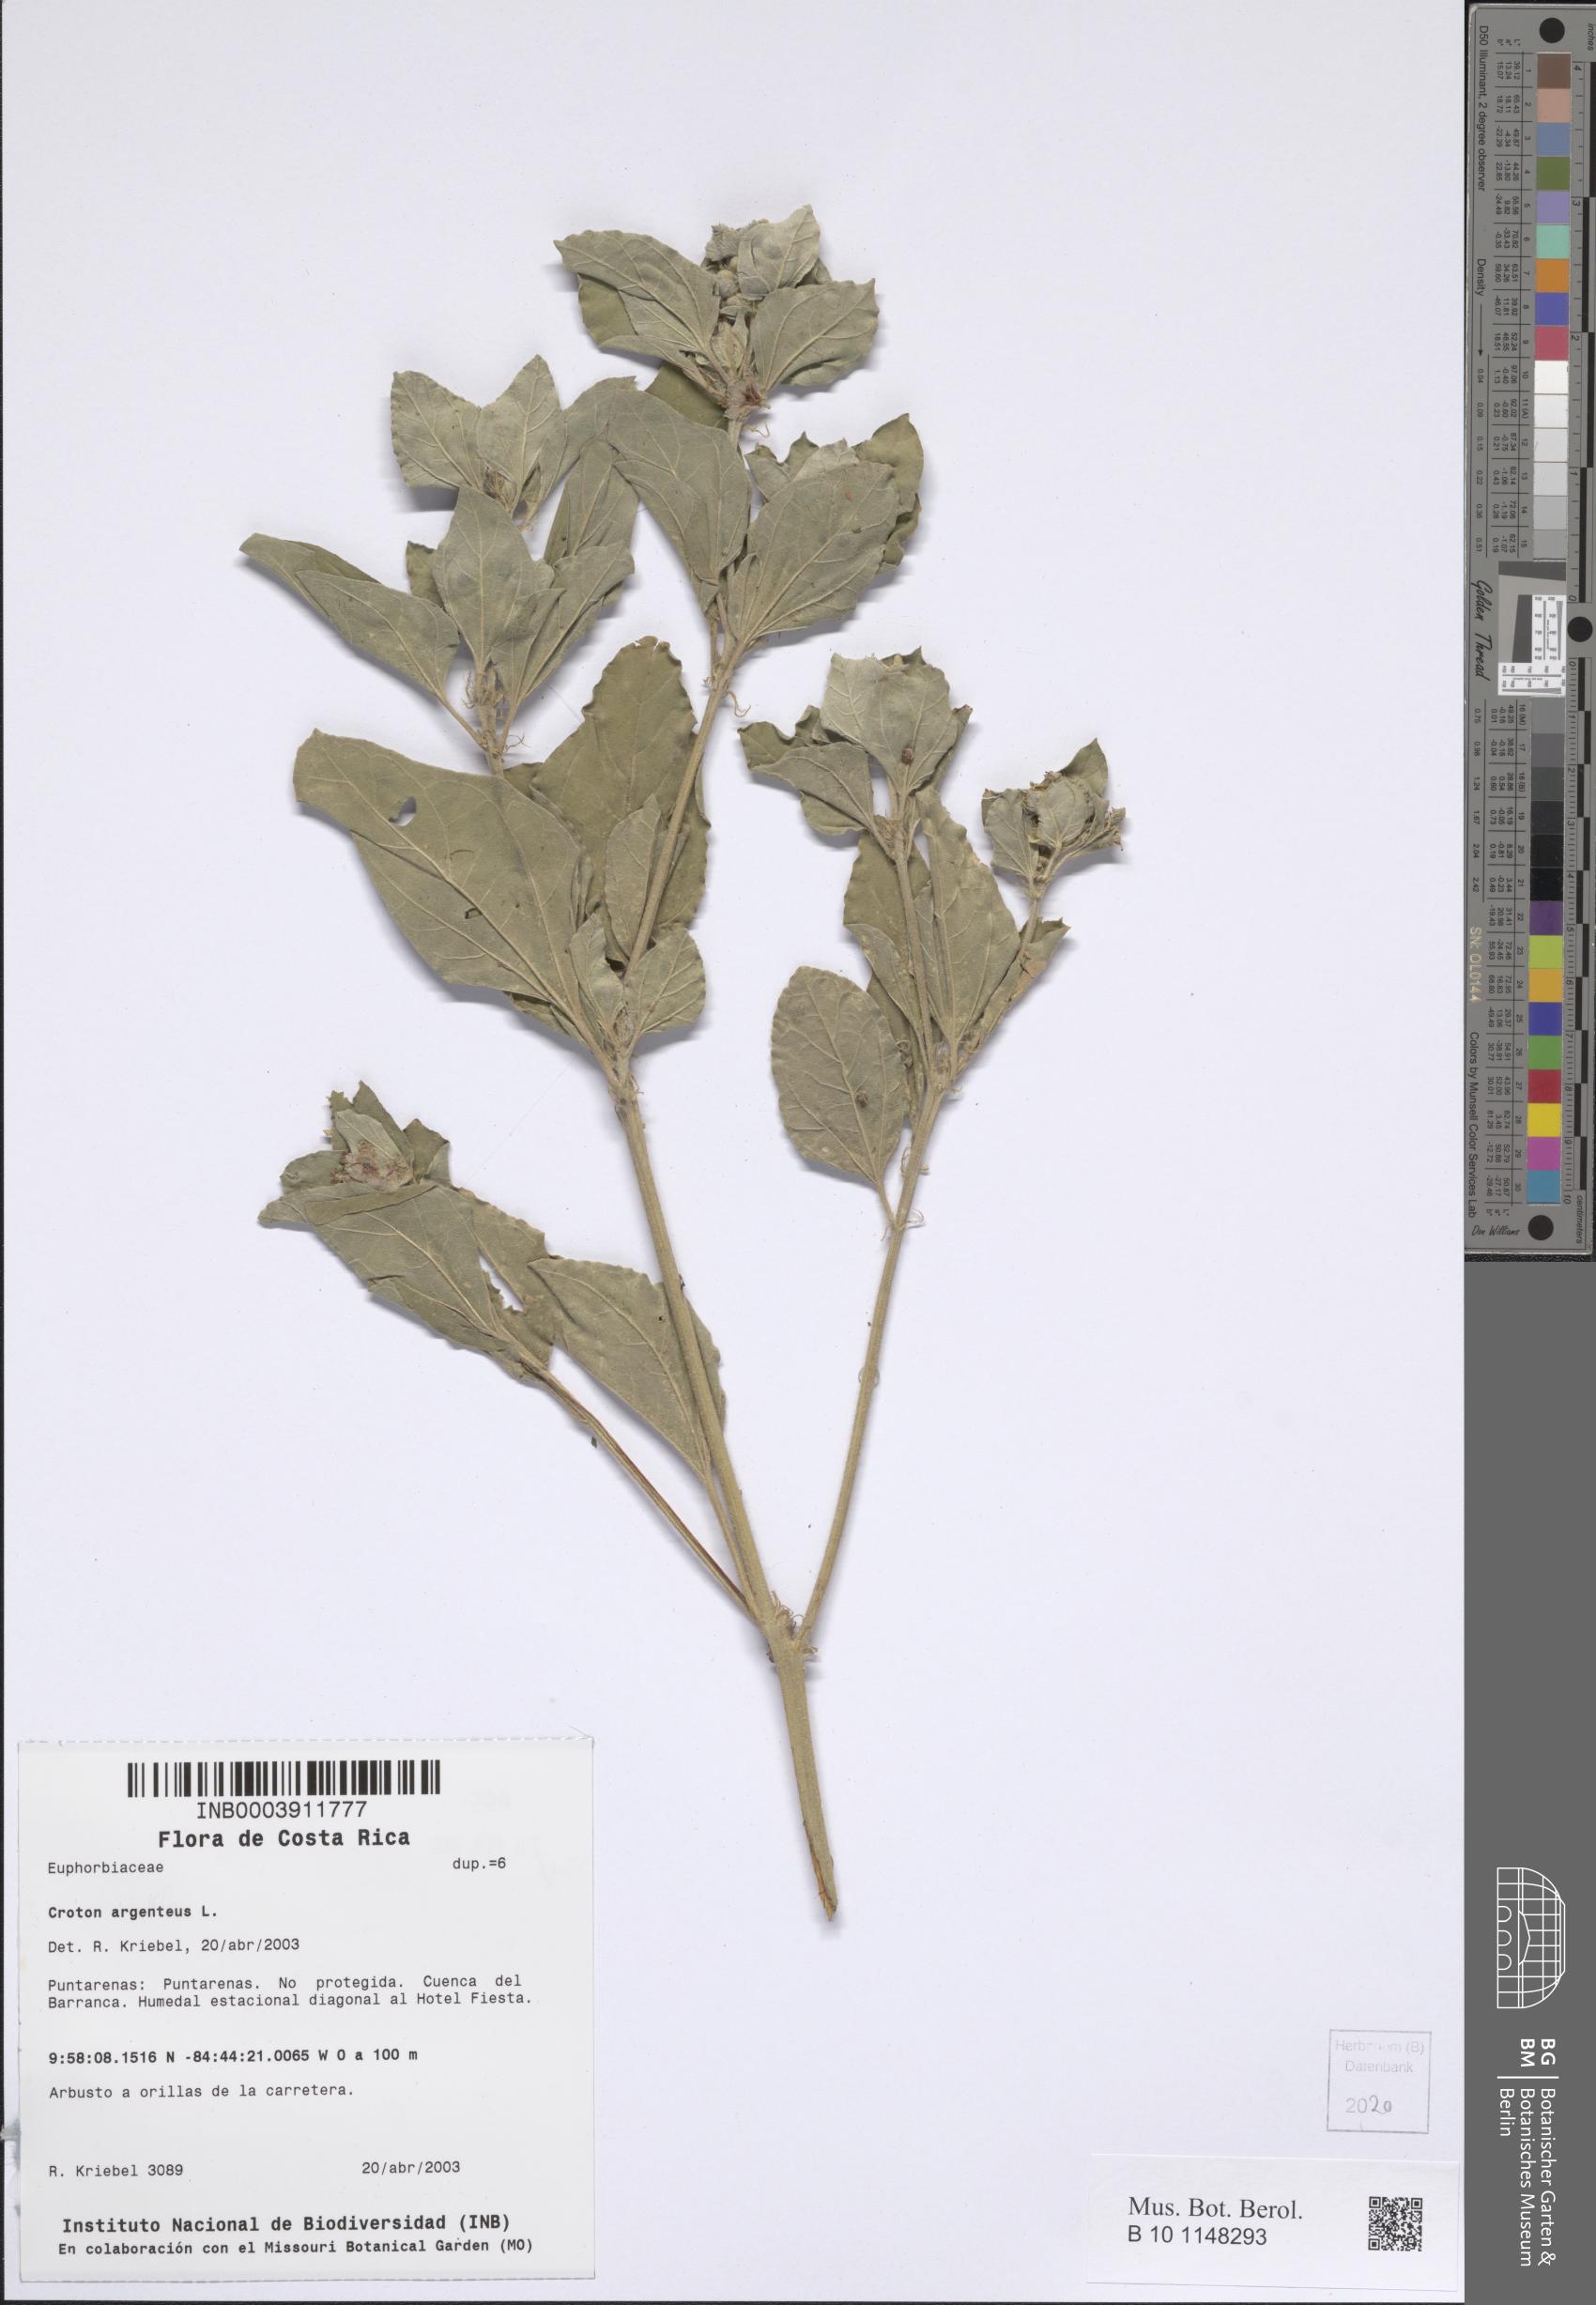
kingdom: Plantae
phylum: Tracheophyta
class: Magnoliopsida
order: Malpighiales
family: Euphorbiaceae
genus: Croton
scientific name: Croton argenteus
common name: Silver july croton
